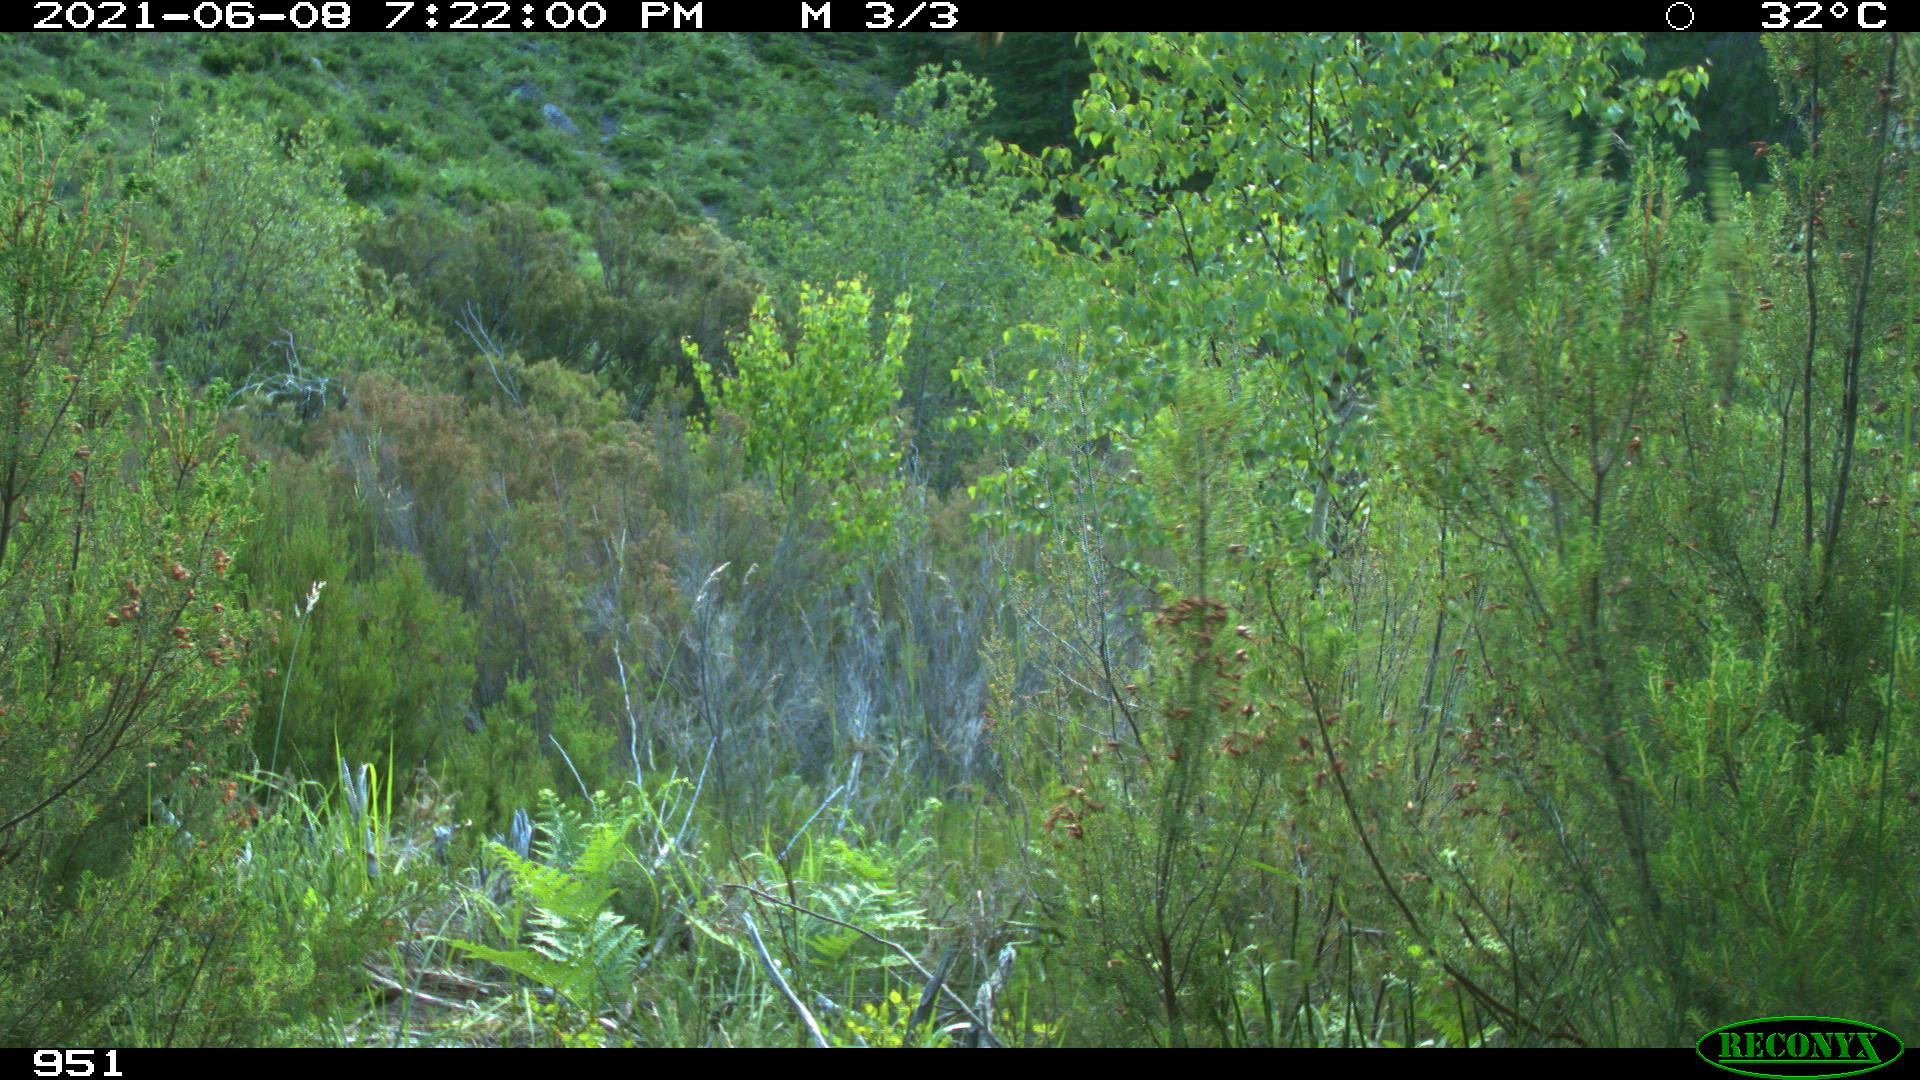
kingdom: Animalia
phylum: Chordata
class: Mammalia
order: Artiodactyla
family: Bovidae
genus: Bos
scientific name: Bos taurus
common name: Domesticated cattle
